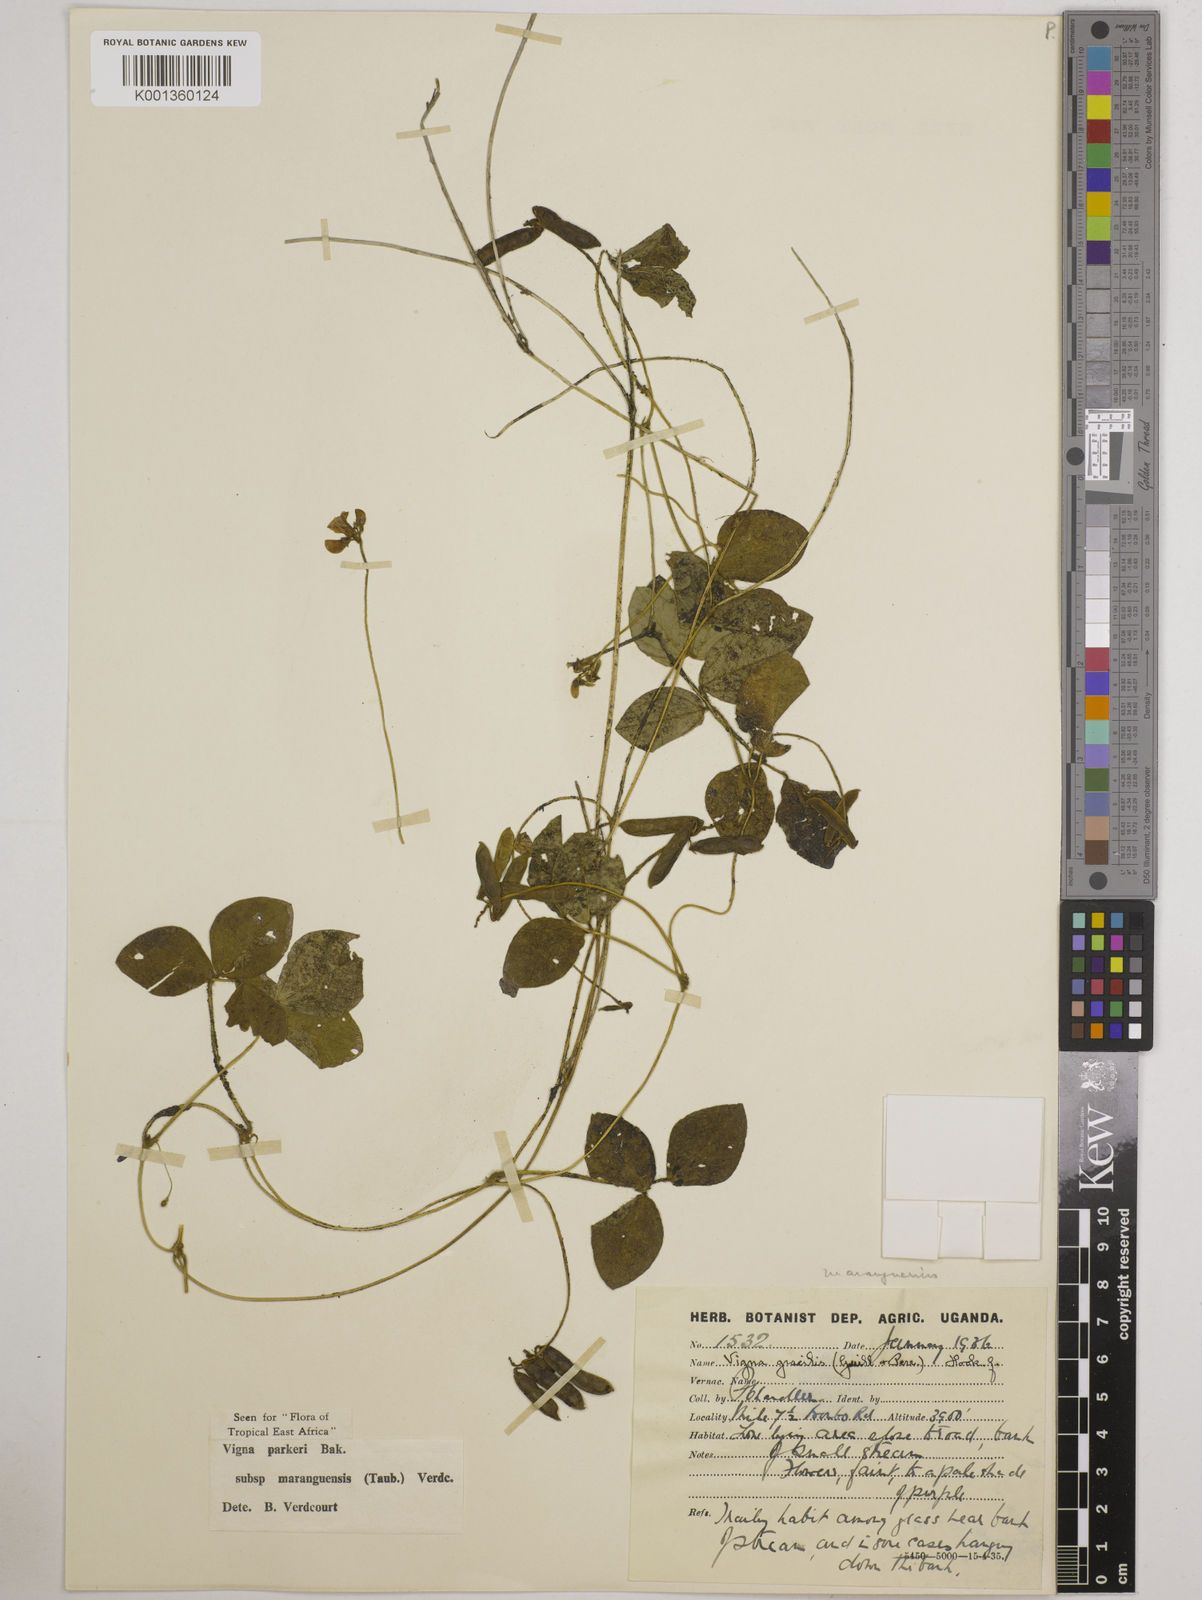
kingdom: Plantae
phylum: Tracheophyta
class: Magnoliopsida
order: Fabales
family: Fabaceae
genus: Vigna
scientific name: Vigna
